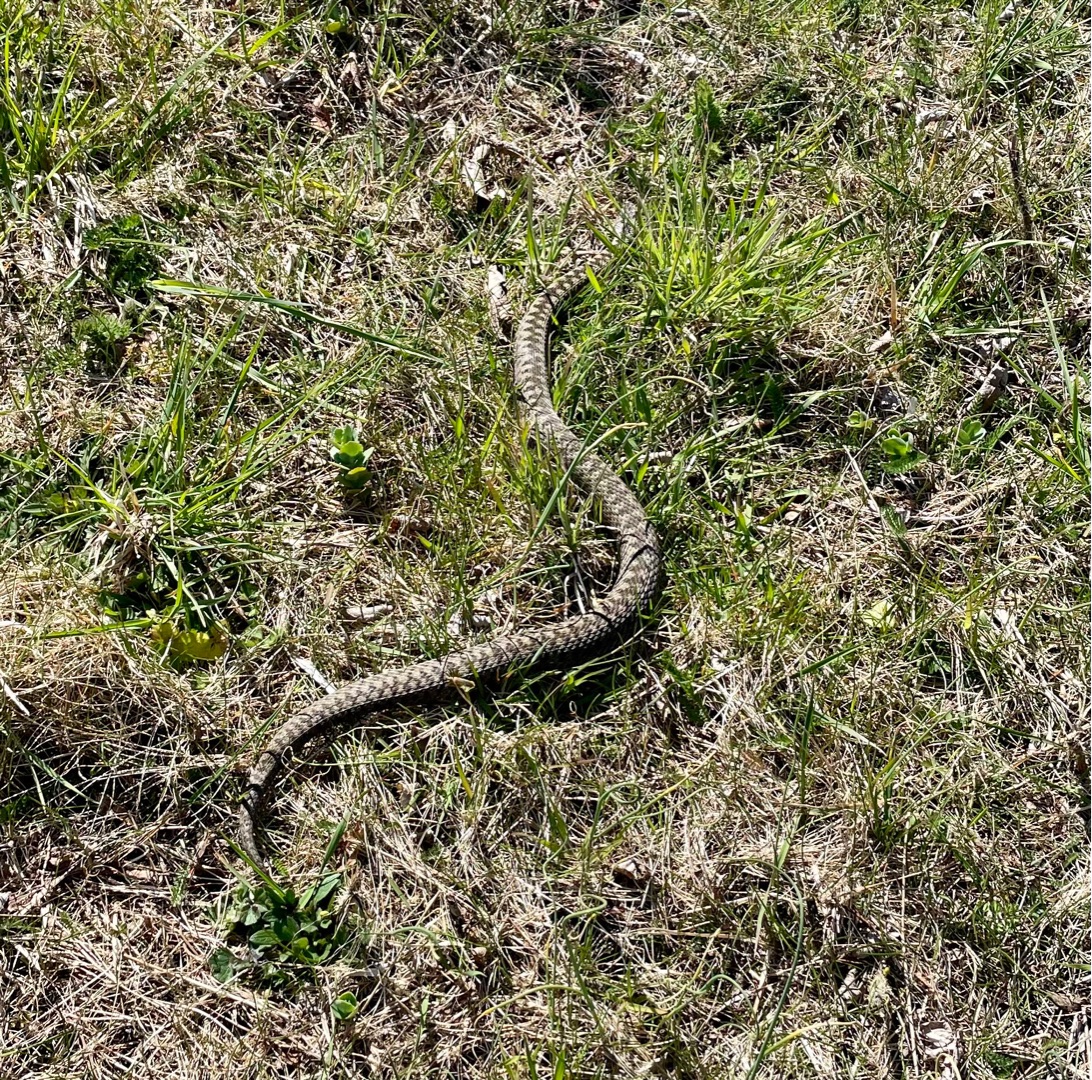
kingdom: Animalia
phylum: Chordata
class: Squamata
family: Viperidae
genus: Vipera
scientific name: Vipera berus
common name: Hugorm
